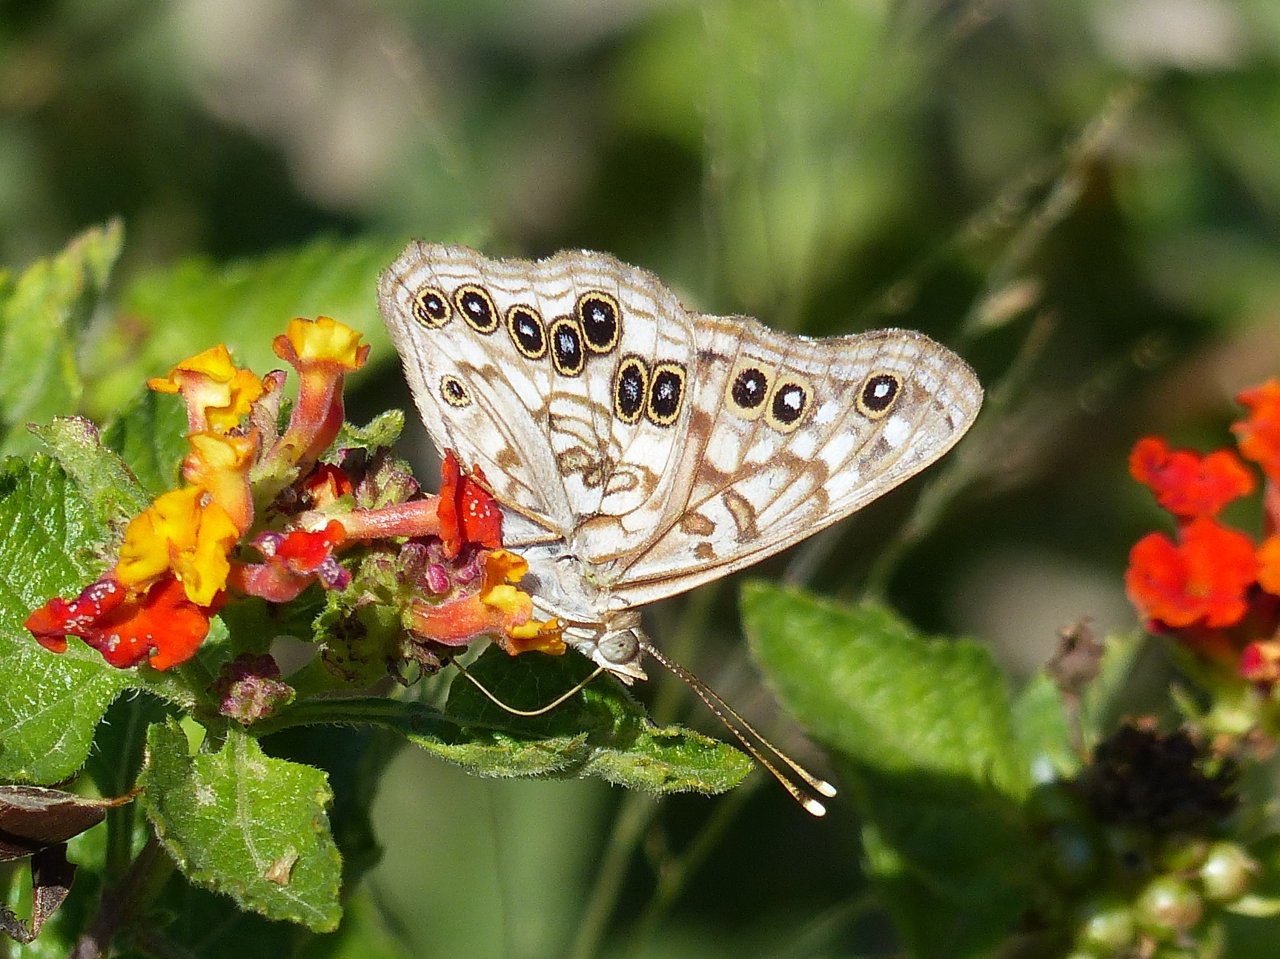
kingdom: Animalia
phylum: Arthropoda
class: Insecta
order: Lepidoptera
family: Nymphalidae
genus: Asterocampa
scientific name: Asterocampa celtis
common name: Hackberry Emperor
